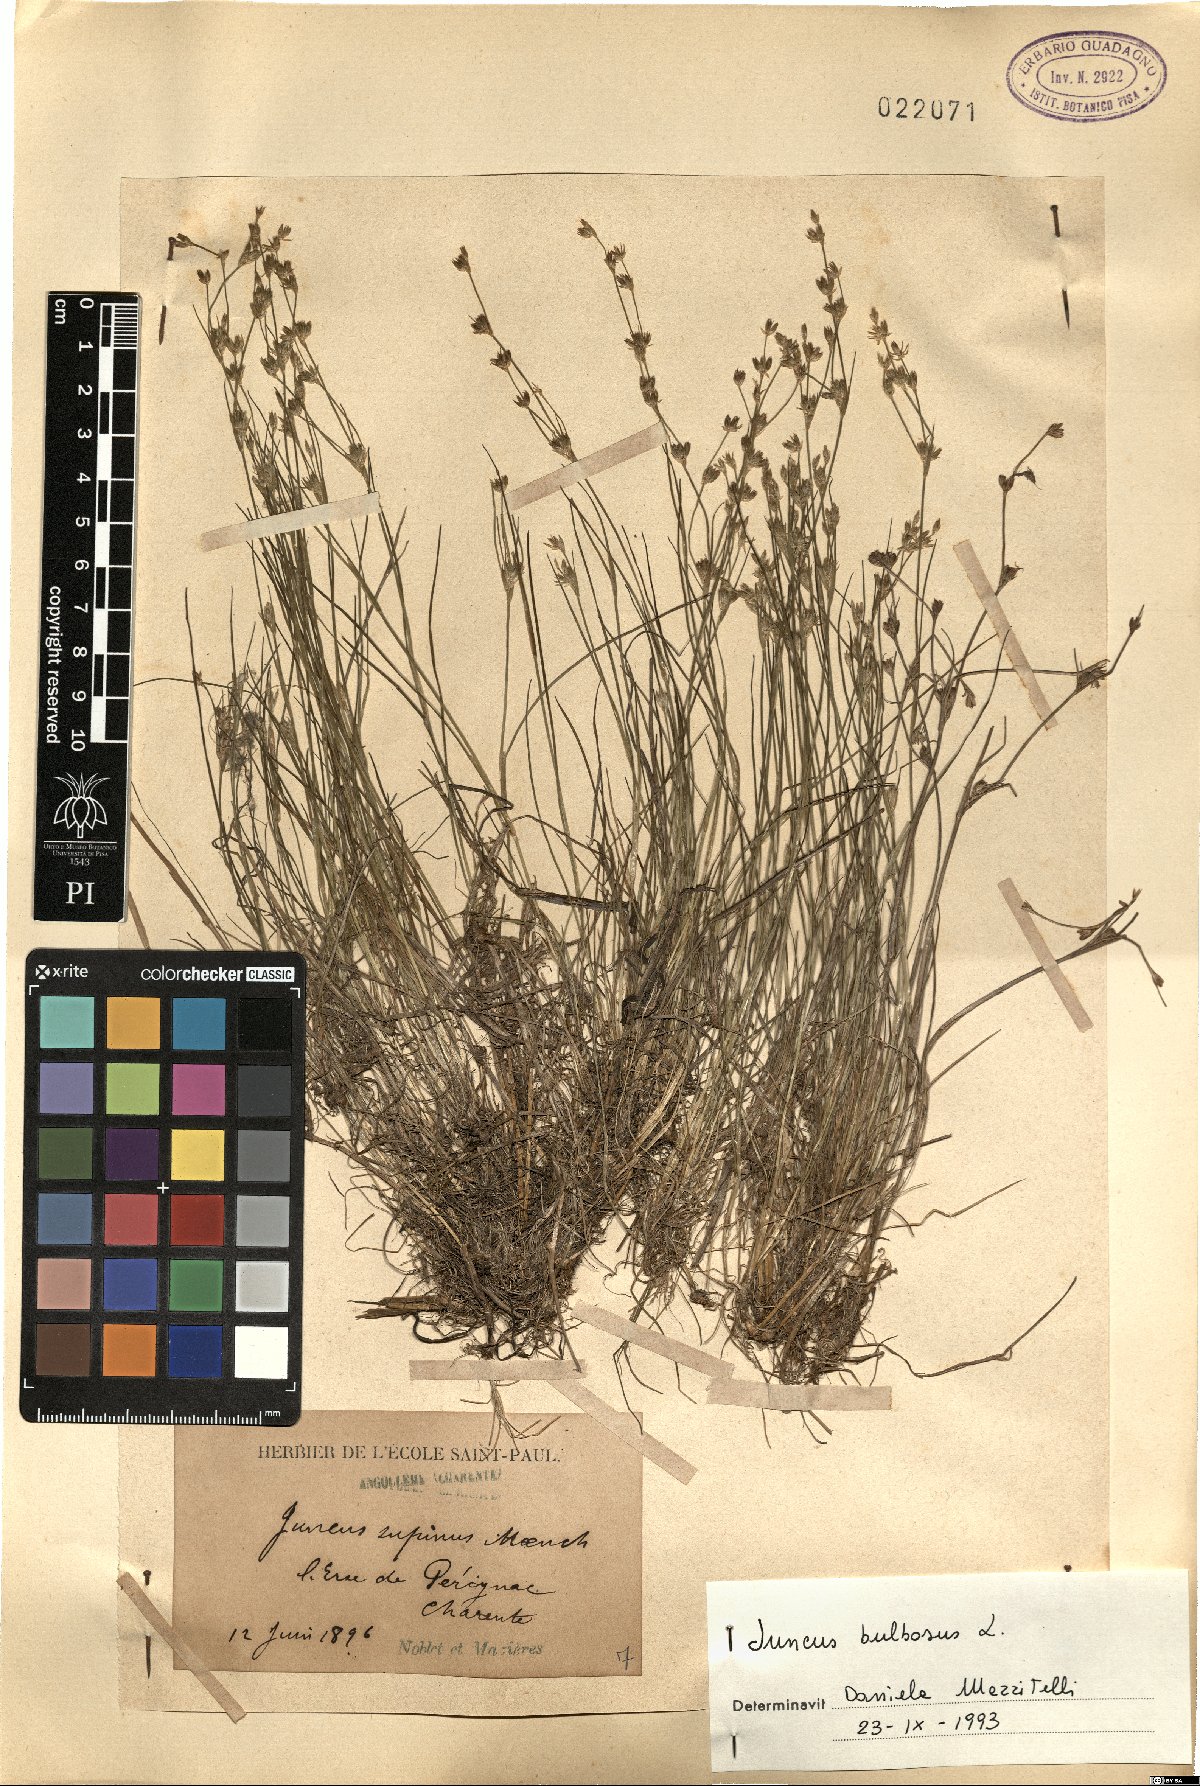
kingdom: Plantae
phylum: Tracheophyta
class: Liliopsida
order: Poales
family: Juncaceae
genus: Juncus
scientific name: Juncus bulbosus
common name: Bulbous rush
